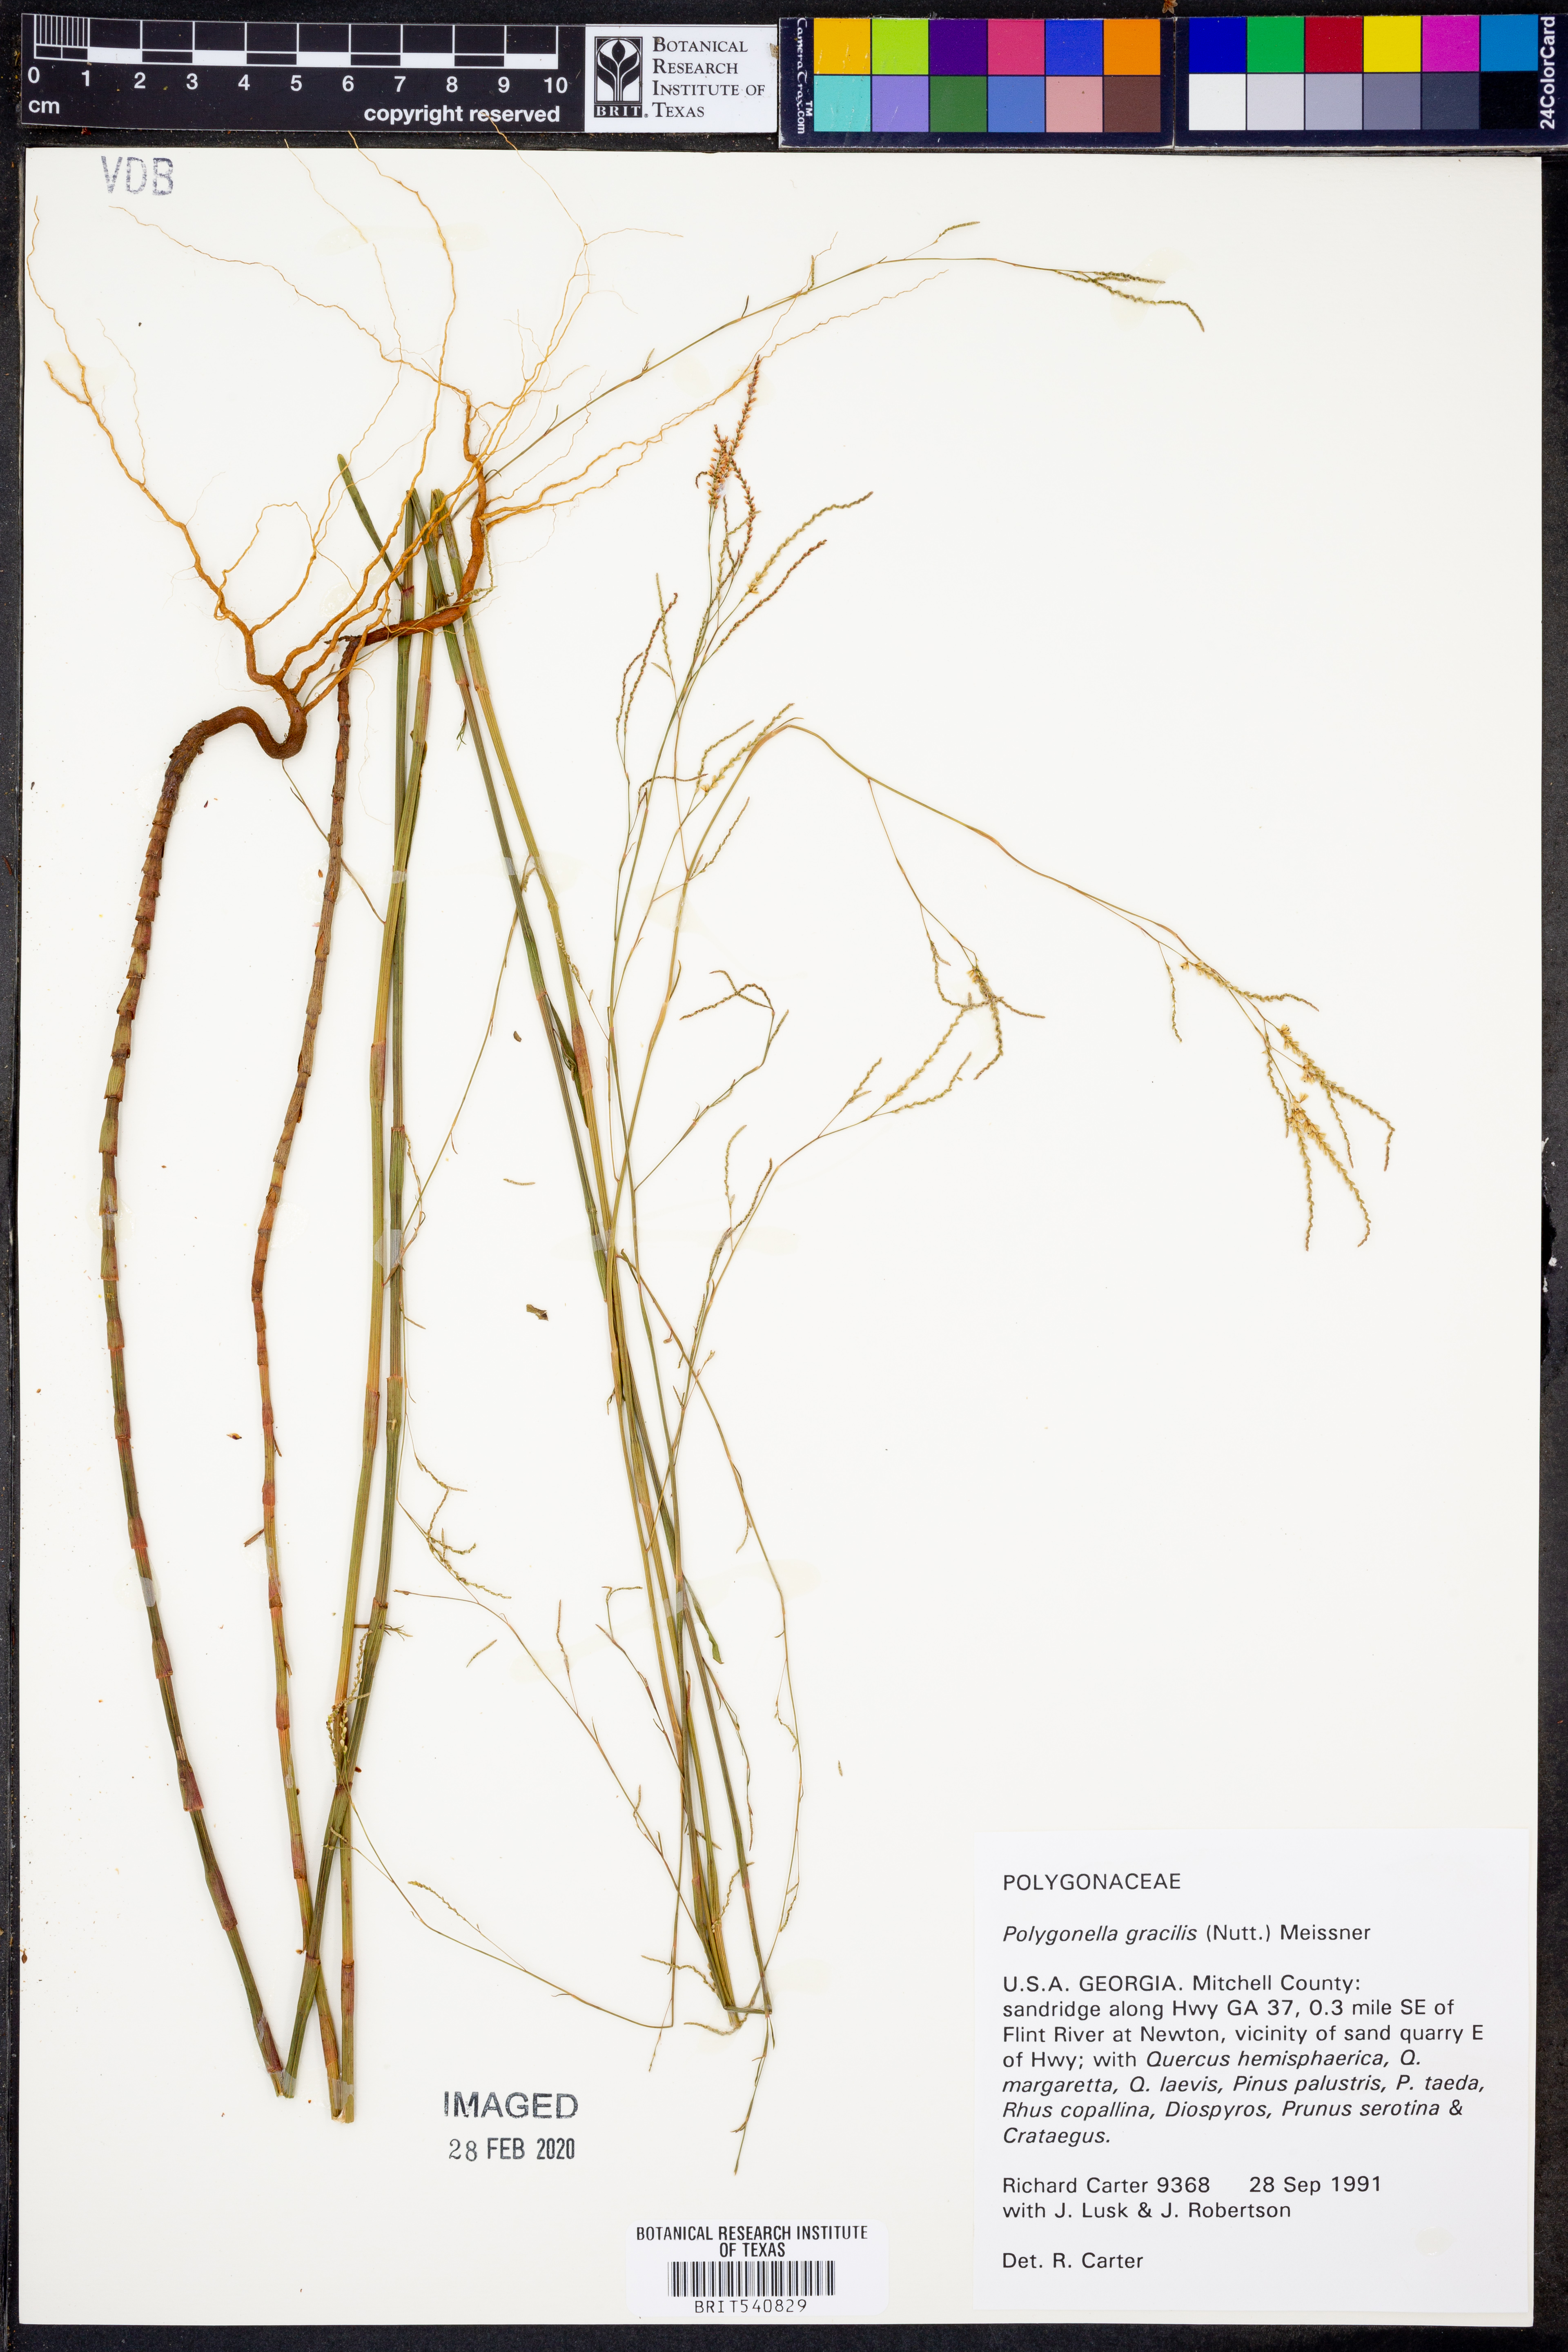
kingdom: Plantae
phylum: Tracheophyta
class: Magnoliopsida
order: Caryophyllales
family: Polygonaceae
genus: Polygonella
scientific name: Polygonella gracilis
